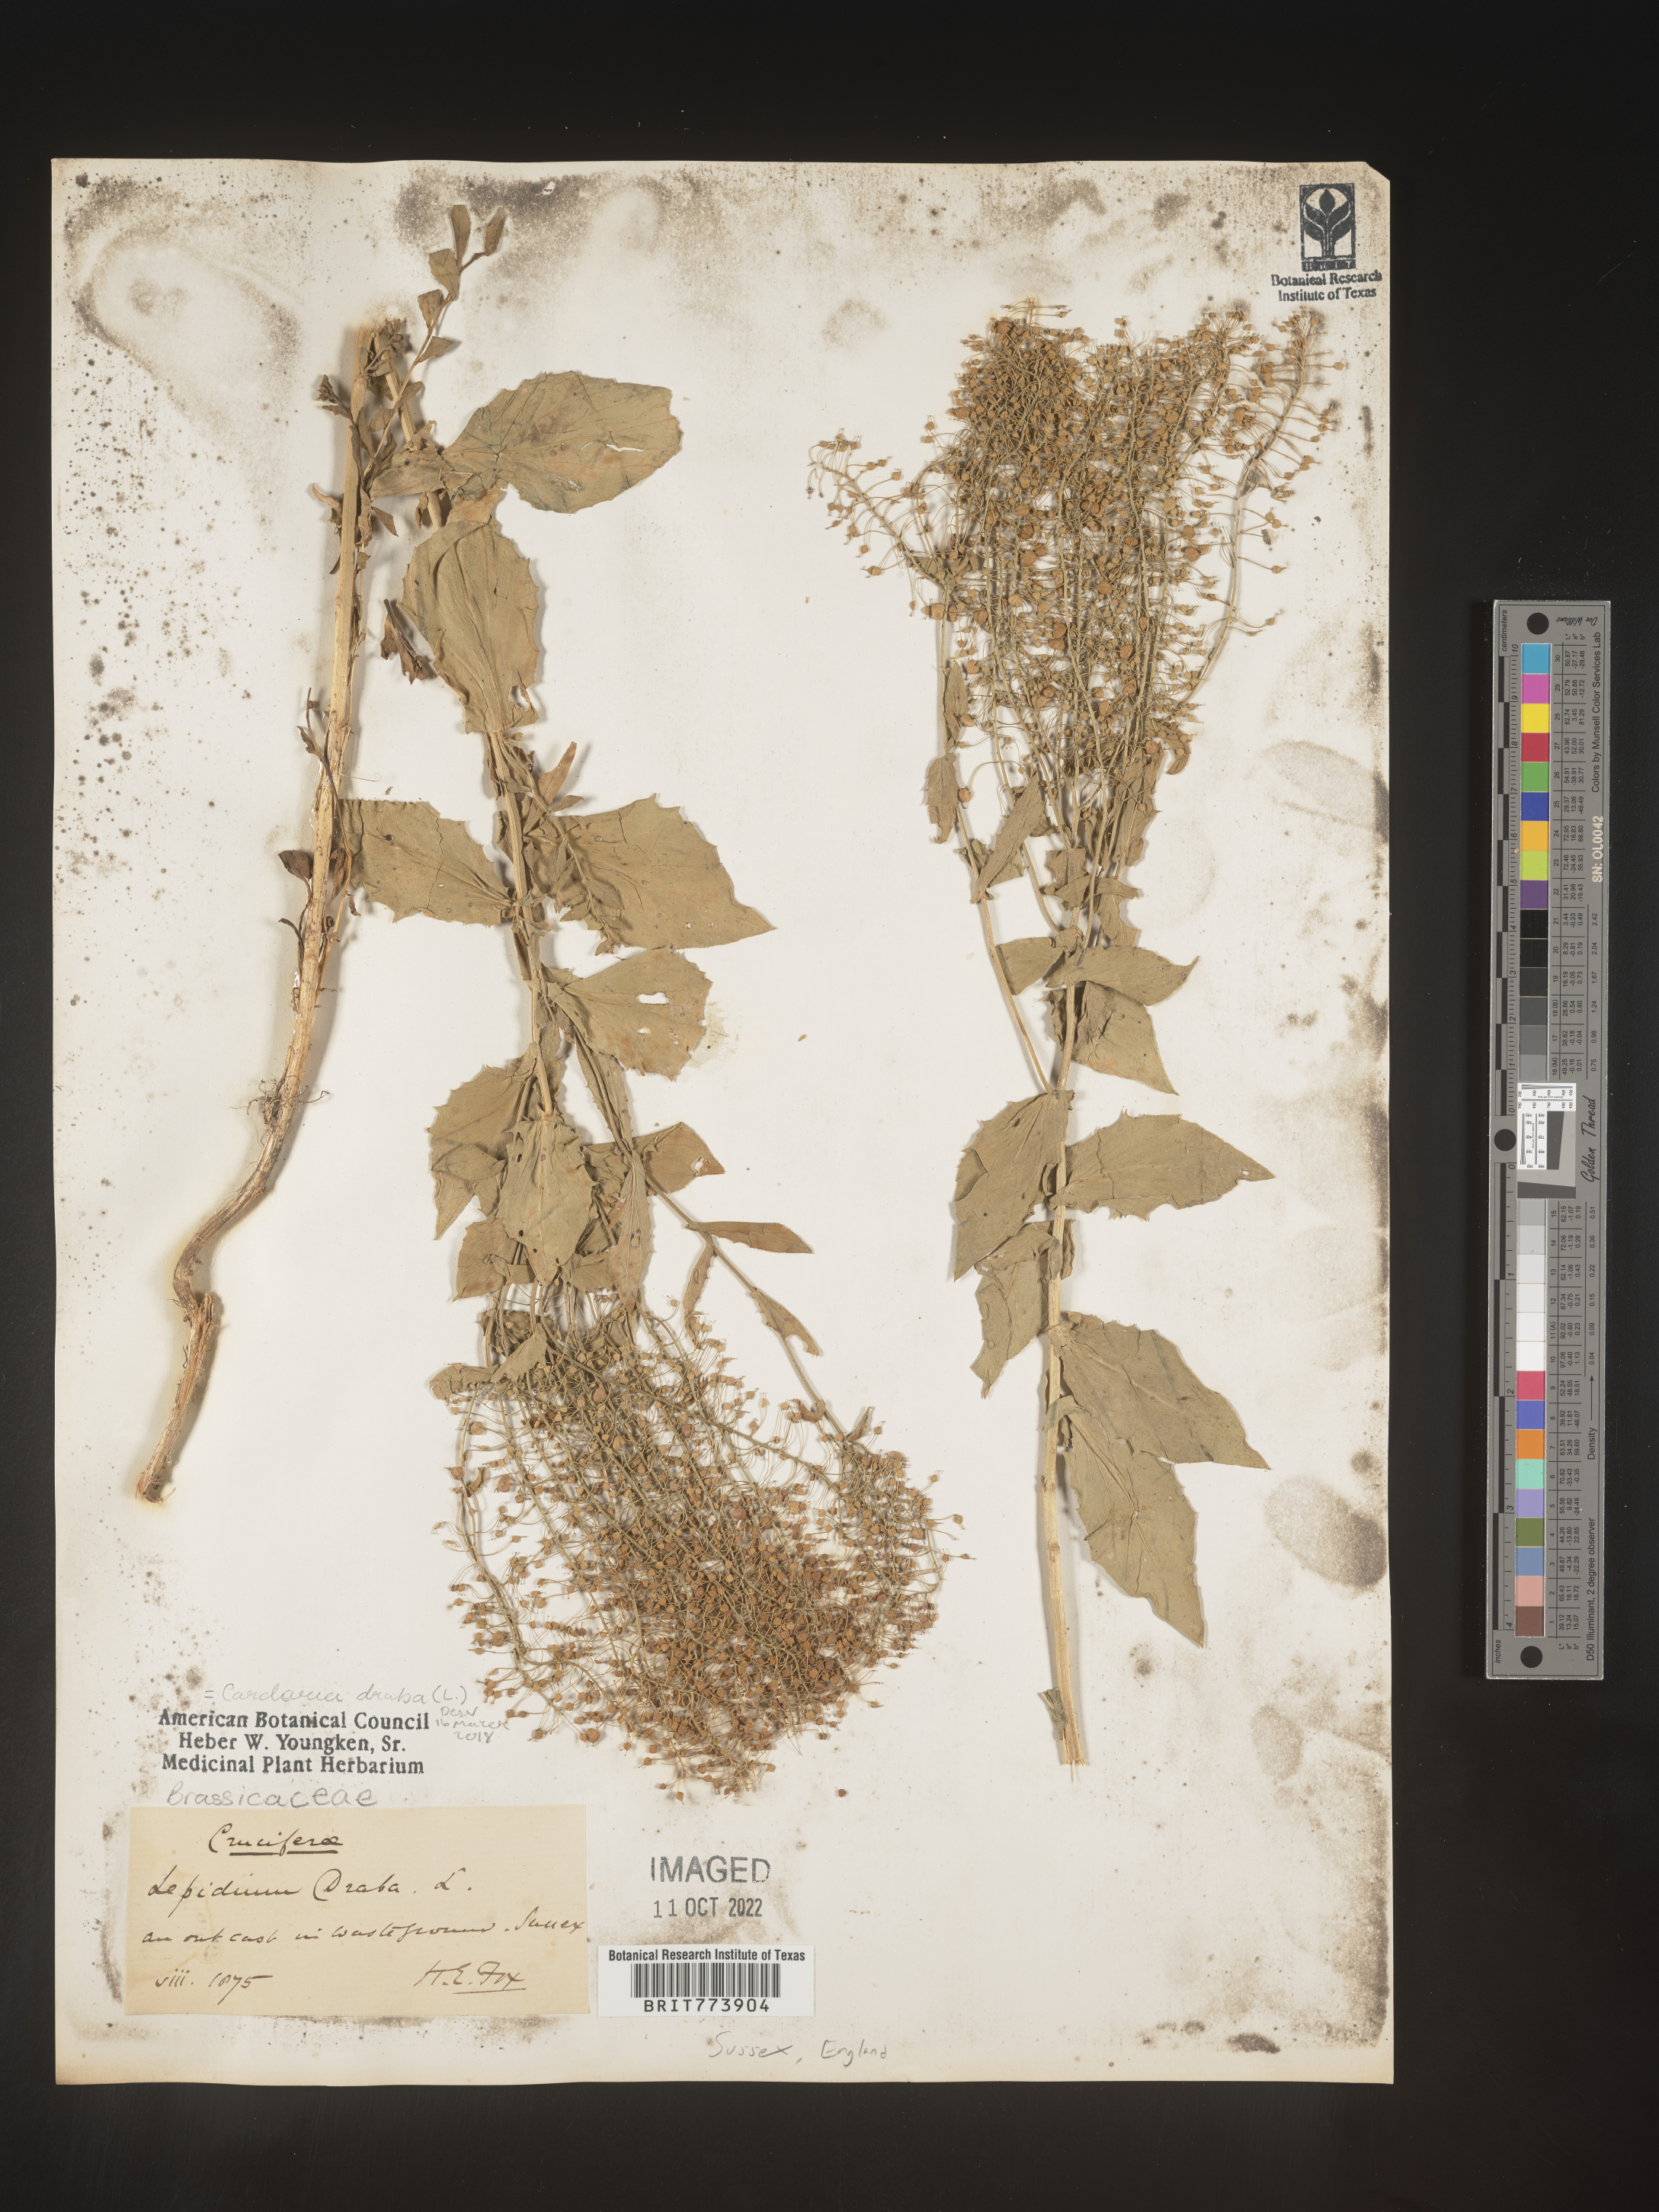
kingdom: Plantae
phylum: Tracheophyta
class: Magnoliopsida
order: Brassicales
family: Brassicaceae
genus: Lepidium
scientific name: Lepidium
